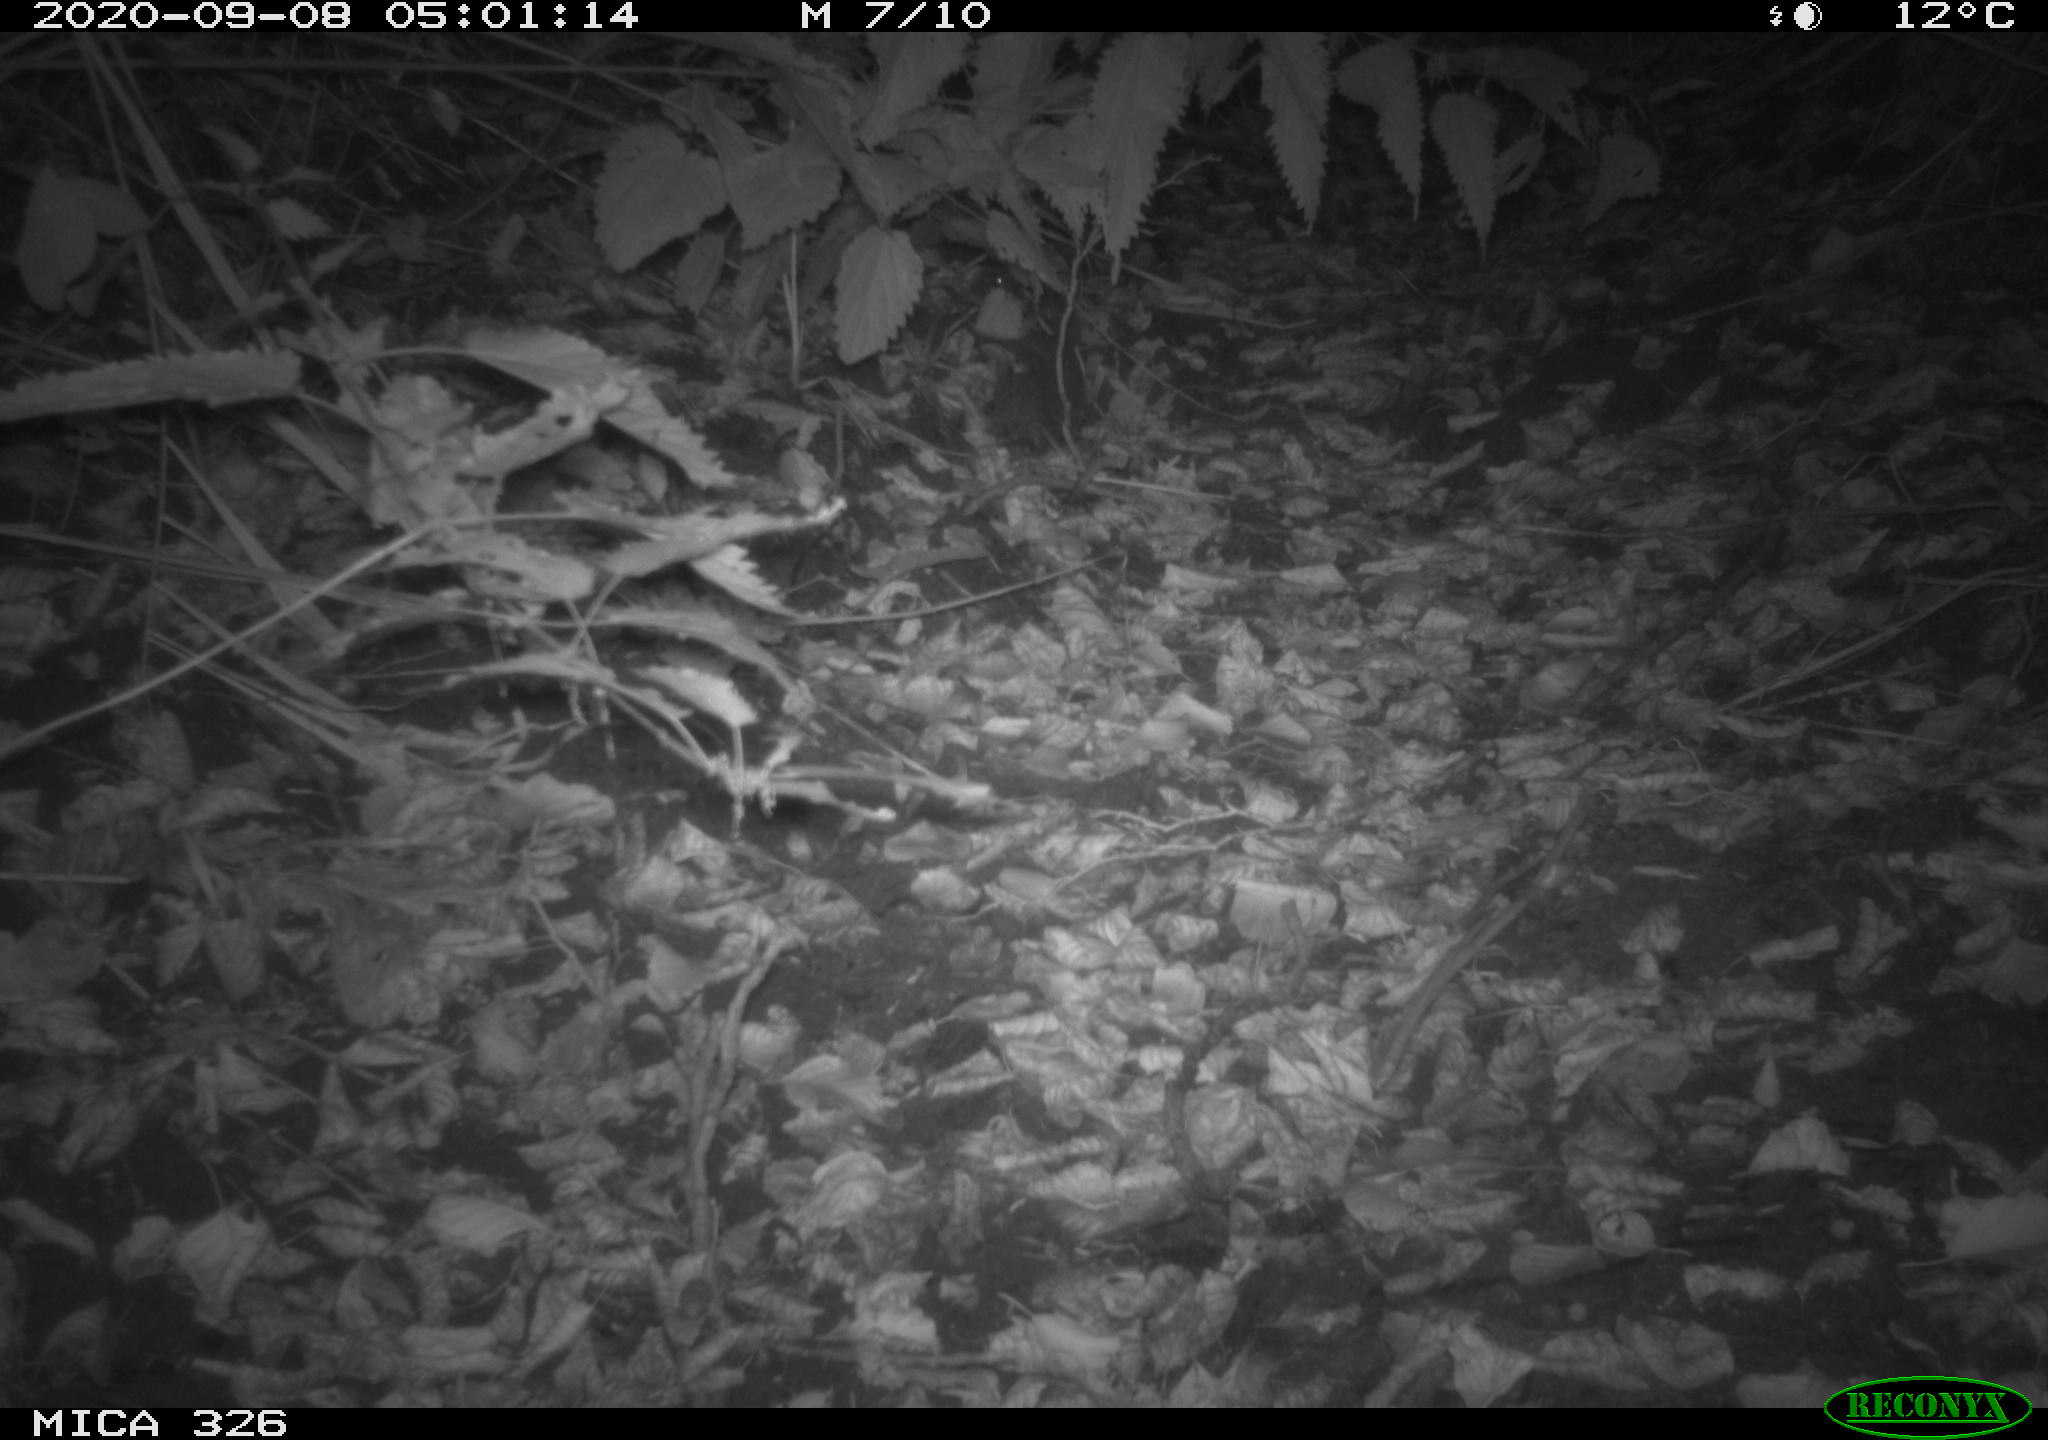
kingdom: Animalia
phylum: Chordata
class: Mammalia
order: Carnivora
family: Canidae
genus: Vulpes
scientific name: Vulpes vulpes
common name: Red fox
